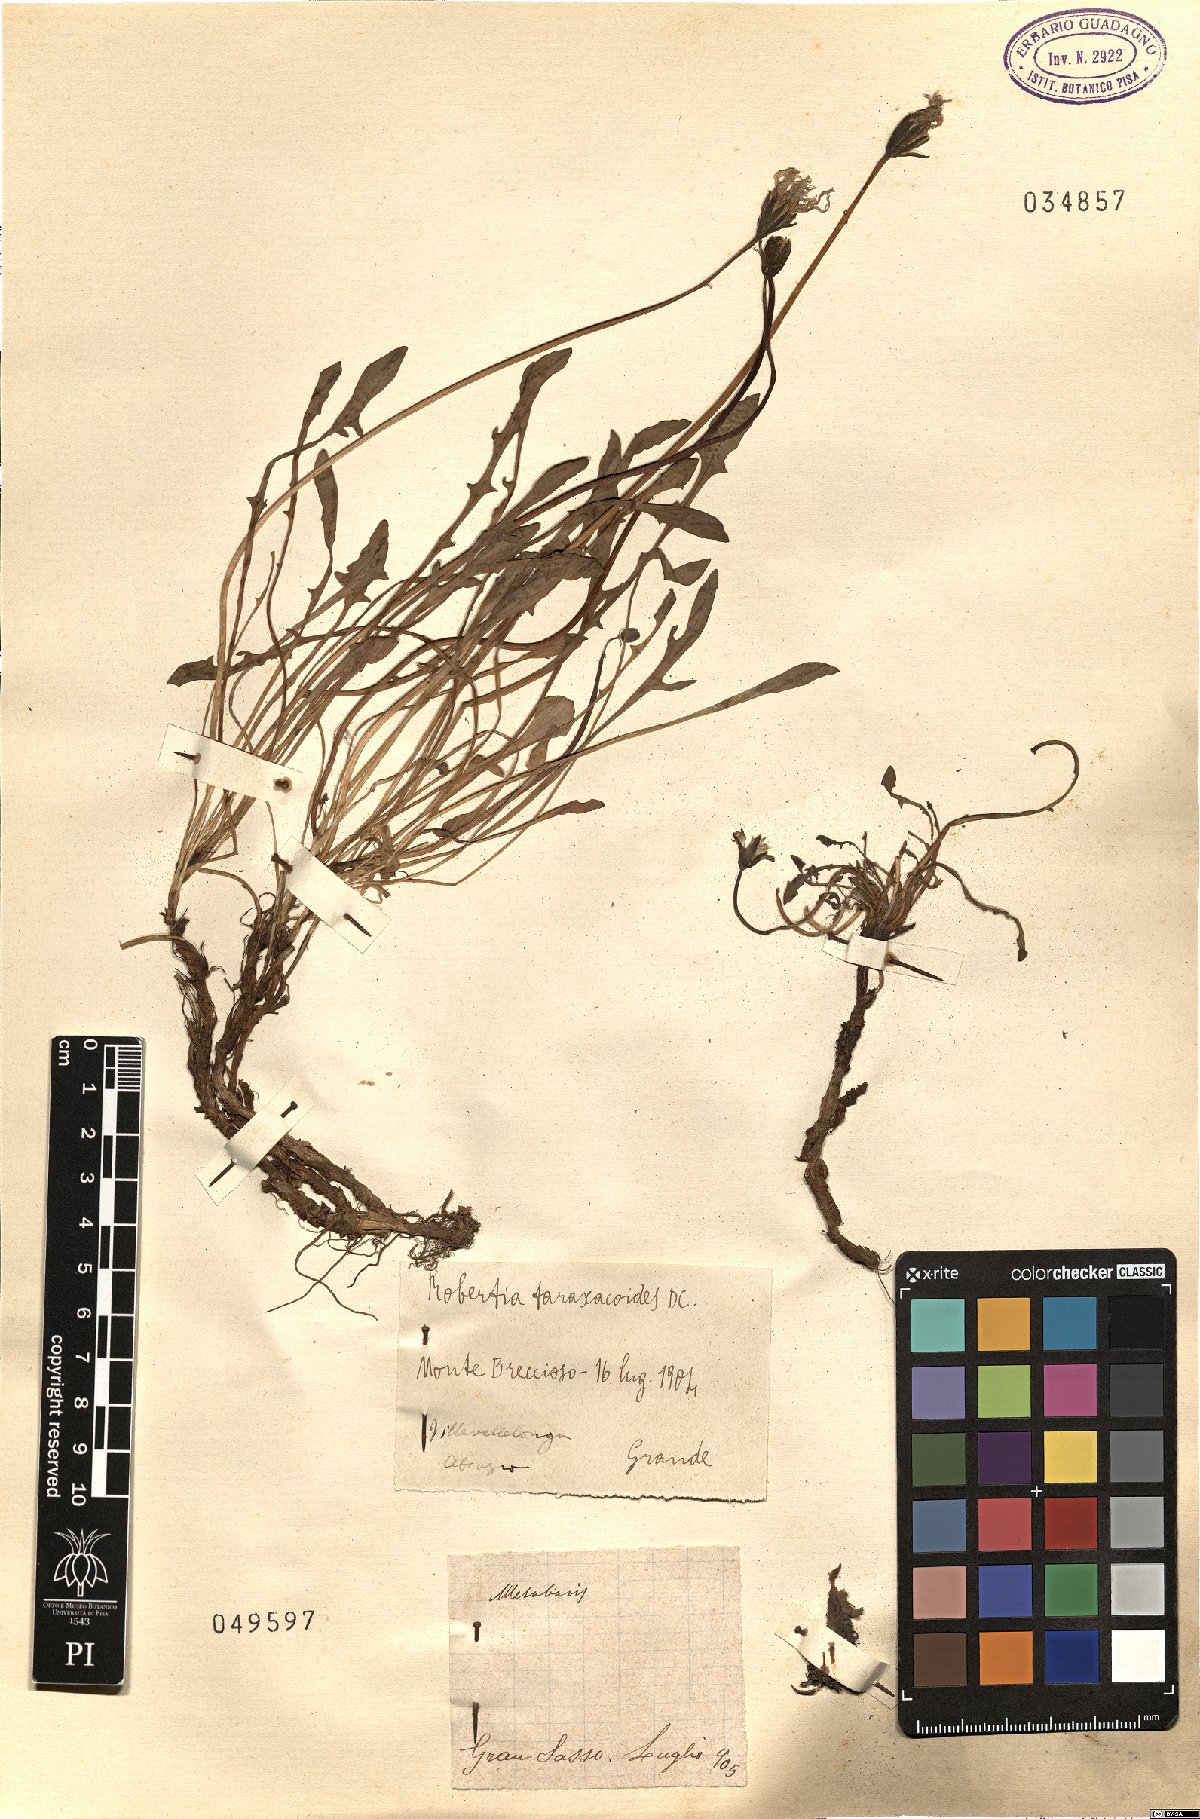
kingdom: Animalia
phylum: Arthropoda
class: Insecta
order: Diptera
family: Stratiomyidae
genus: Metabasis
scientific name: Metabasis
